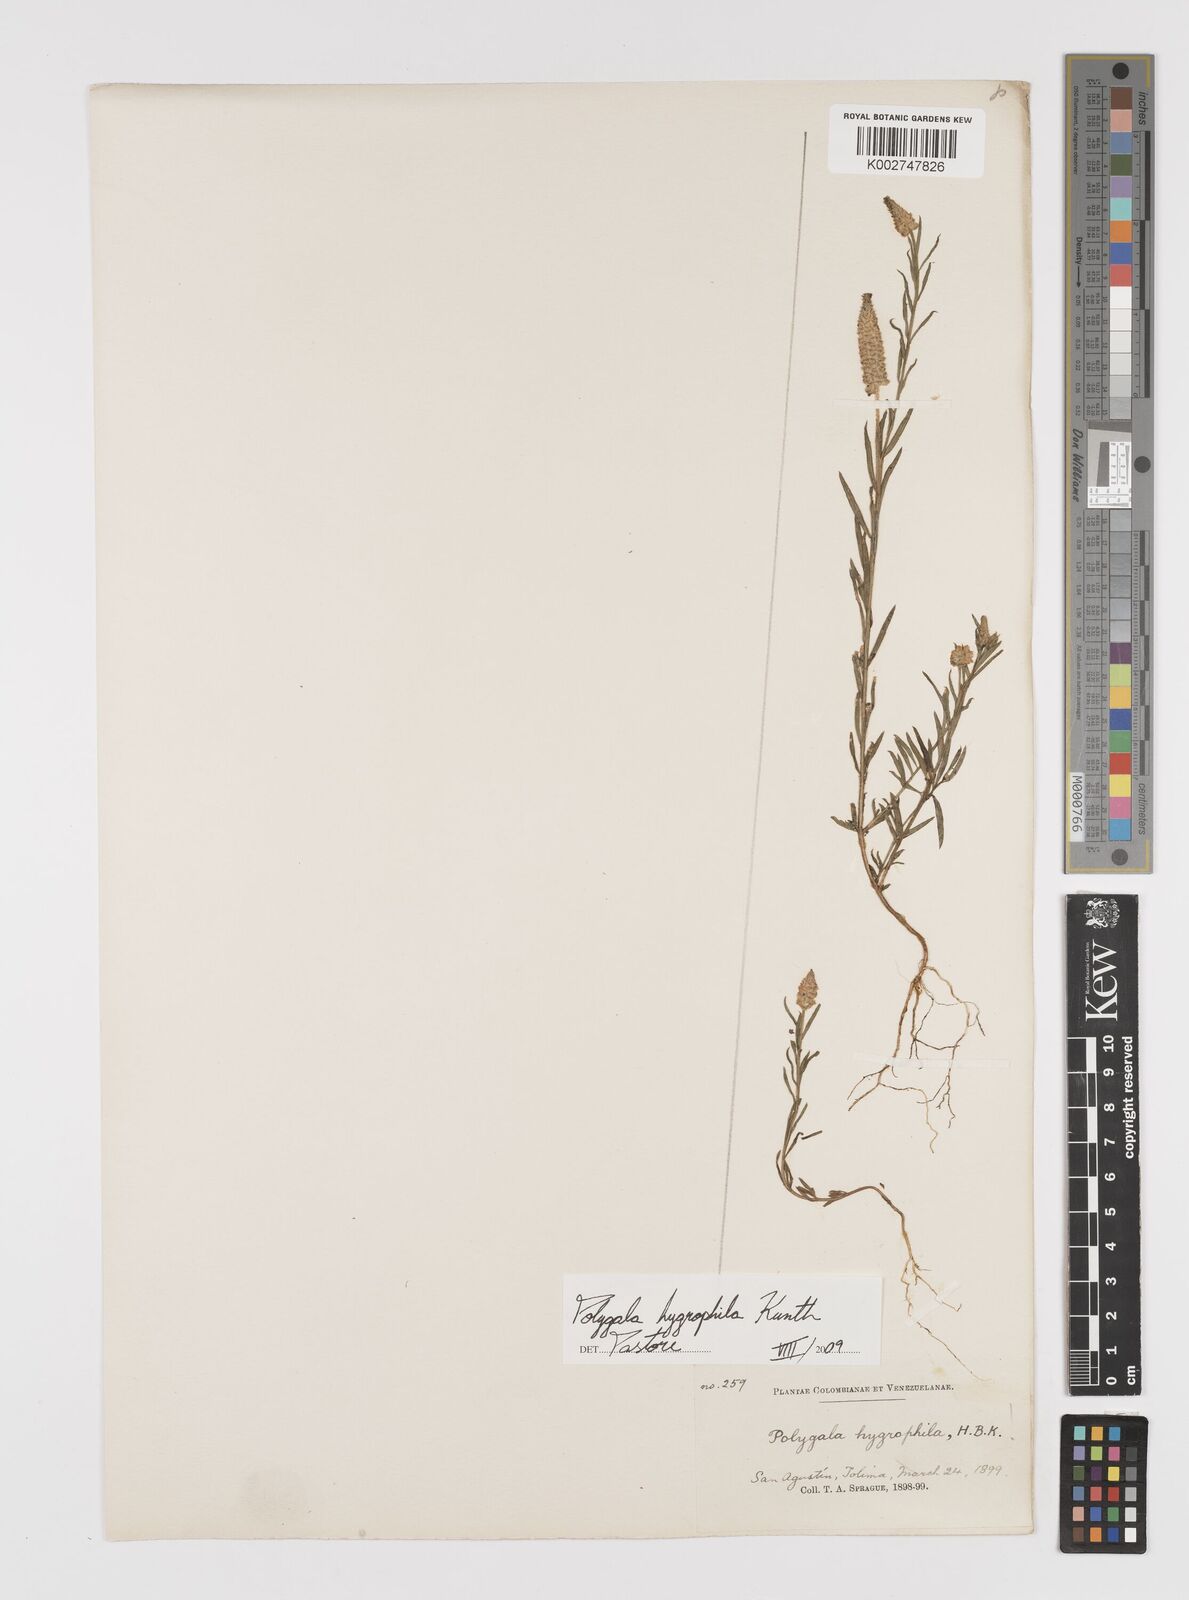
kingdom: Plantae
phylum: Tracheophyta
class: Magnoliopsida
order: Fabales
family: Polygalaceae
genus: Polygala
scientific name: Polygala hygrophila
